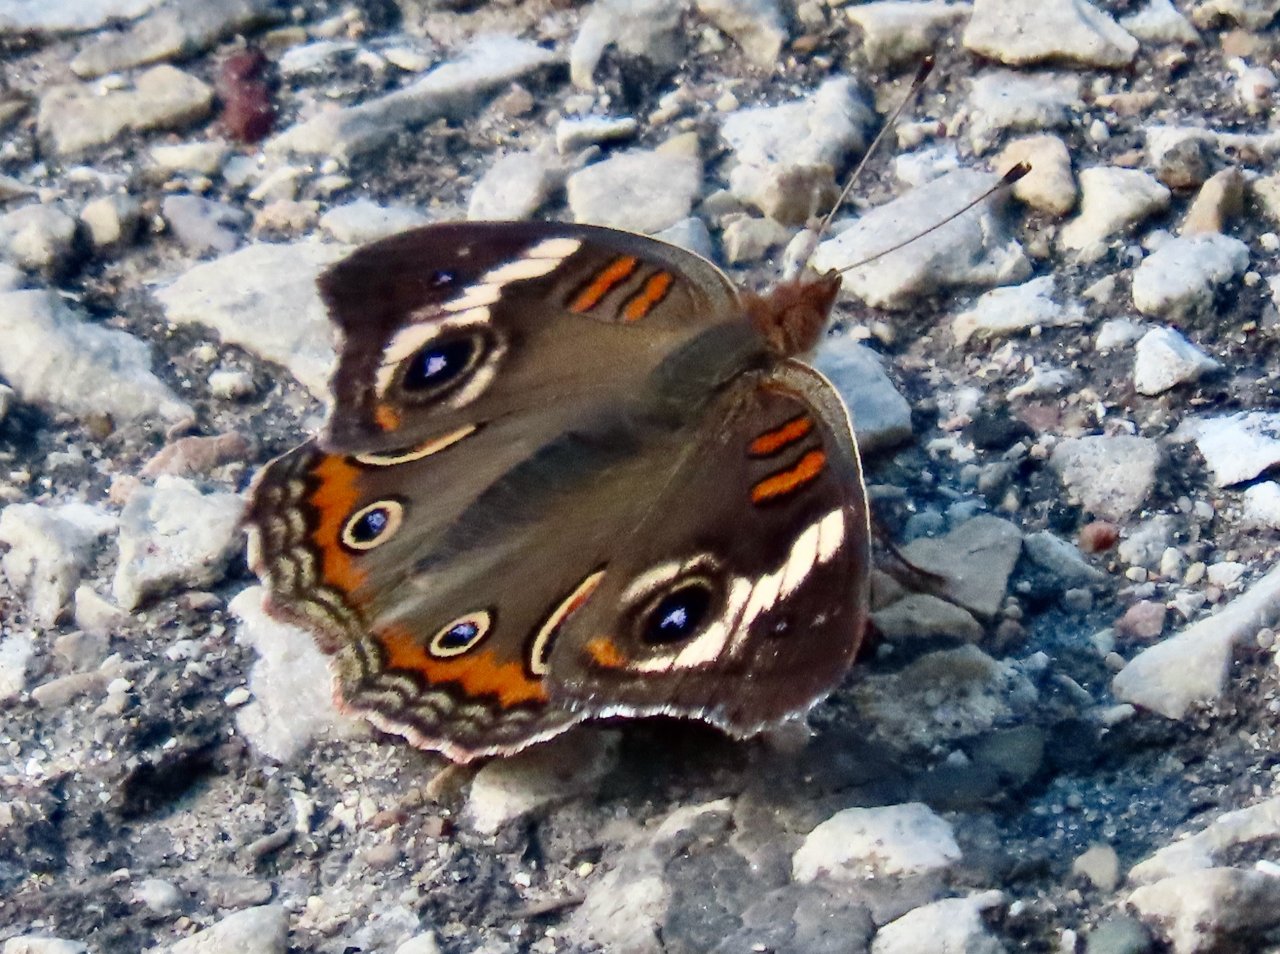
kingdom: Animalia
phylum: Arthropoda
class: Insecta
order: Lepidoptera
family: Nymphalidae
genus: Junonia
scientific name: Junonia coenia
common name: Common Buckeye
